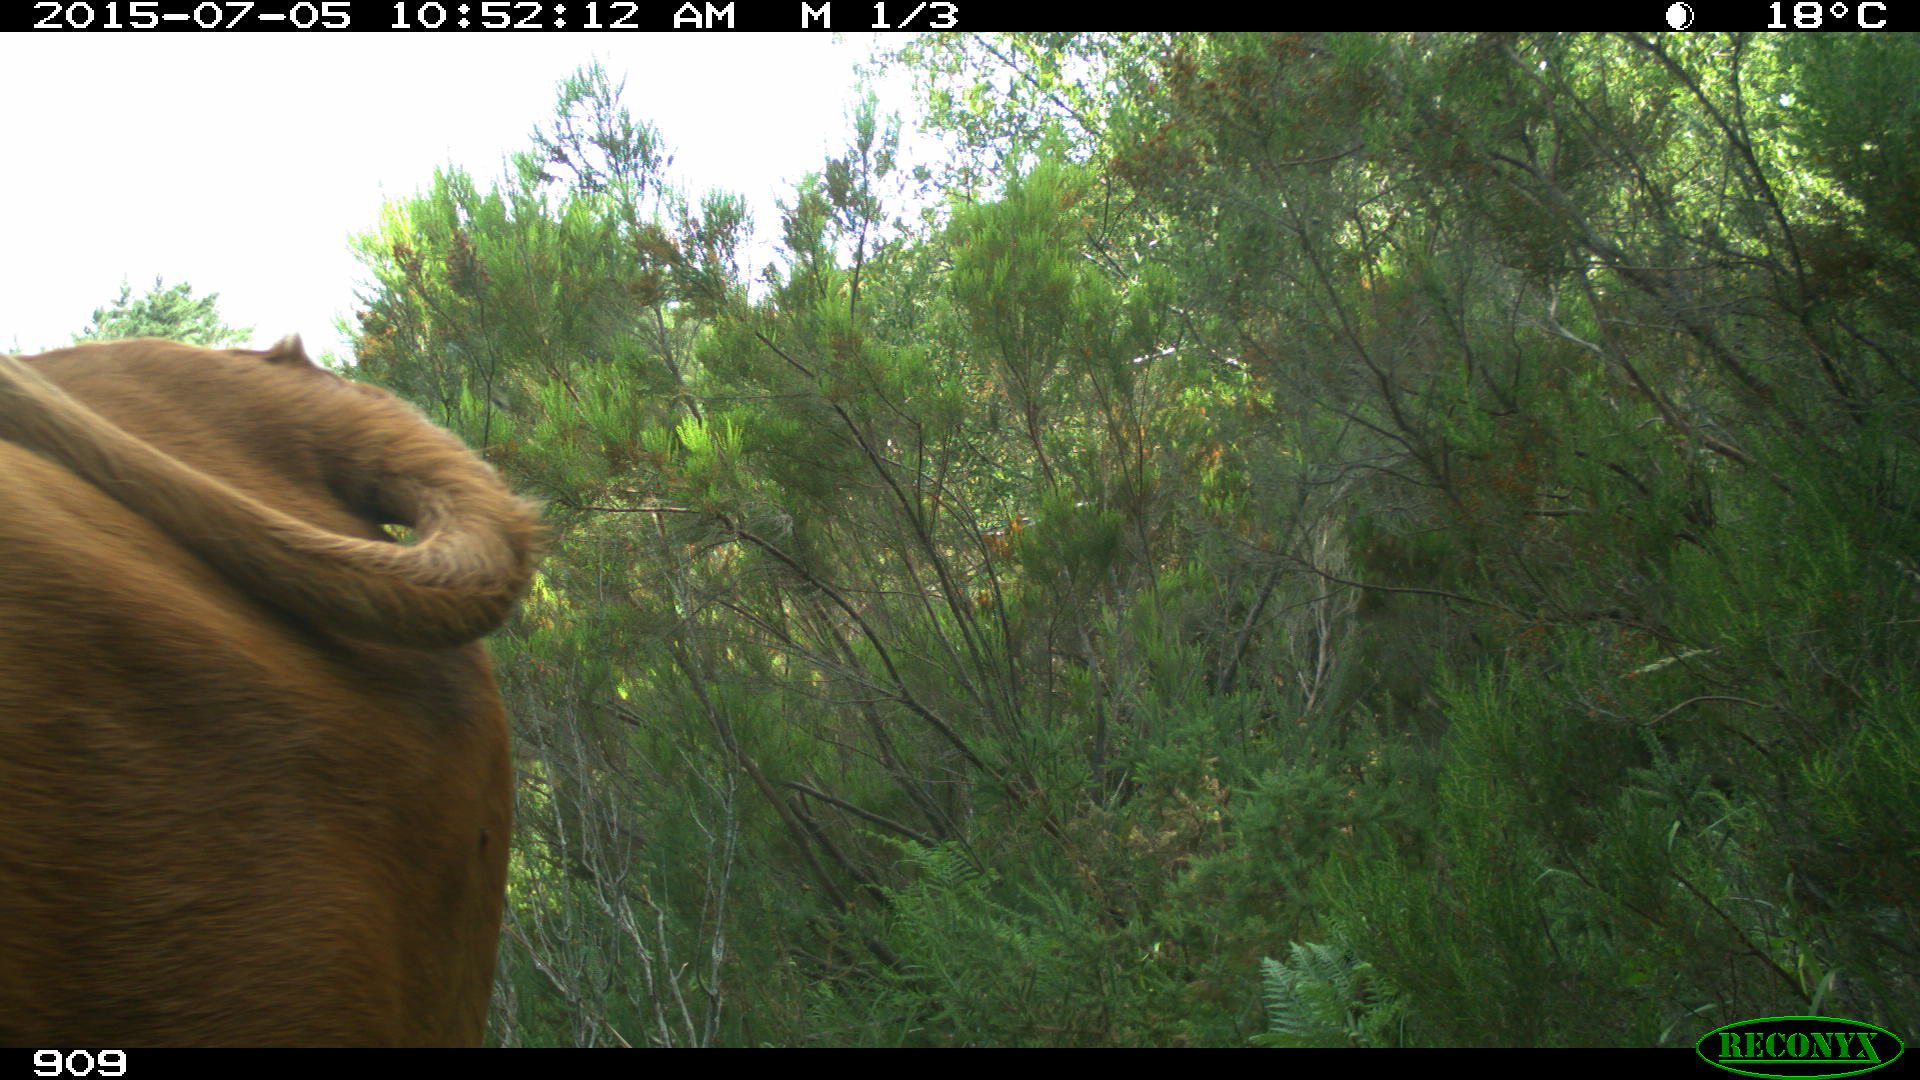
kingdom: Animalia
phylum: Chordata
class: Mammalia
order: Artiodactyla
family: Bovidae
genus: Bos
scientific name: Bos taurus
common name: Domesticated cattle
